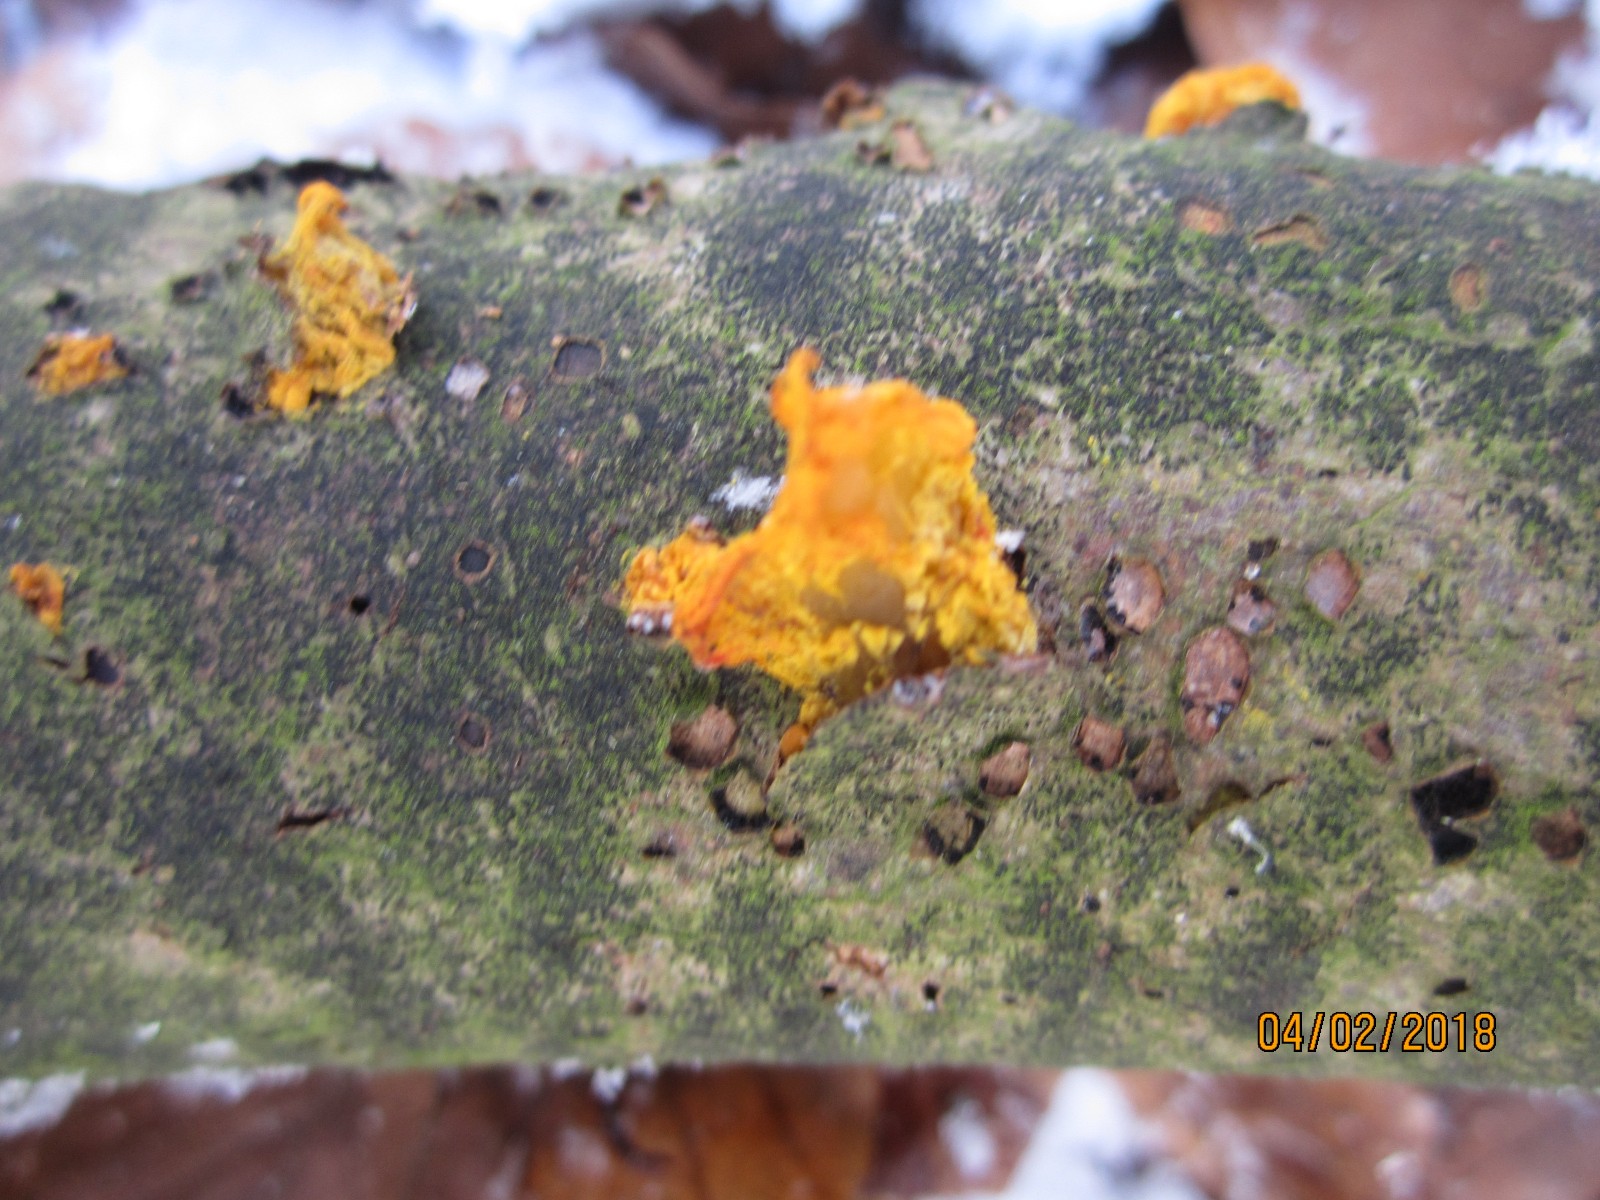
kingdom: Fungi
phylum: Basidiomycota
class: Tremellomycetes
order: Tremellales
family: Tremellaceae
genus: Tremella
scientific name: Tremella mesenterica
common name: gul bævresvamp
